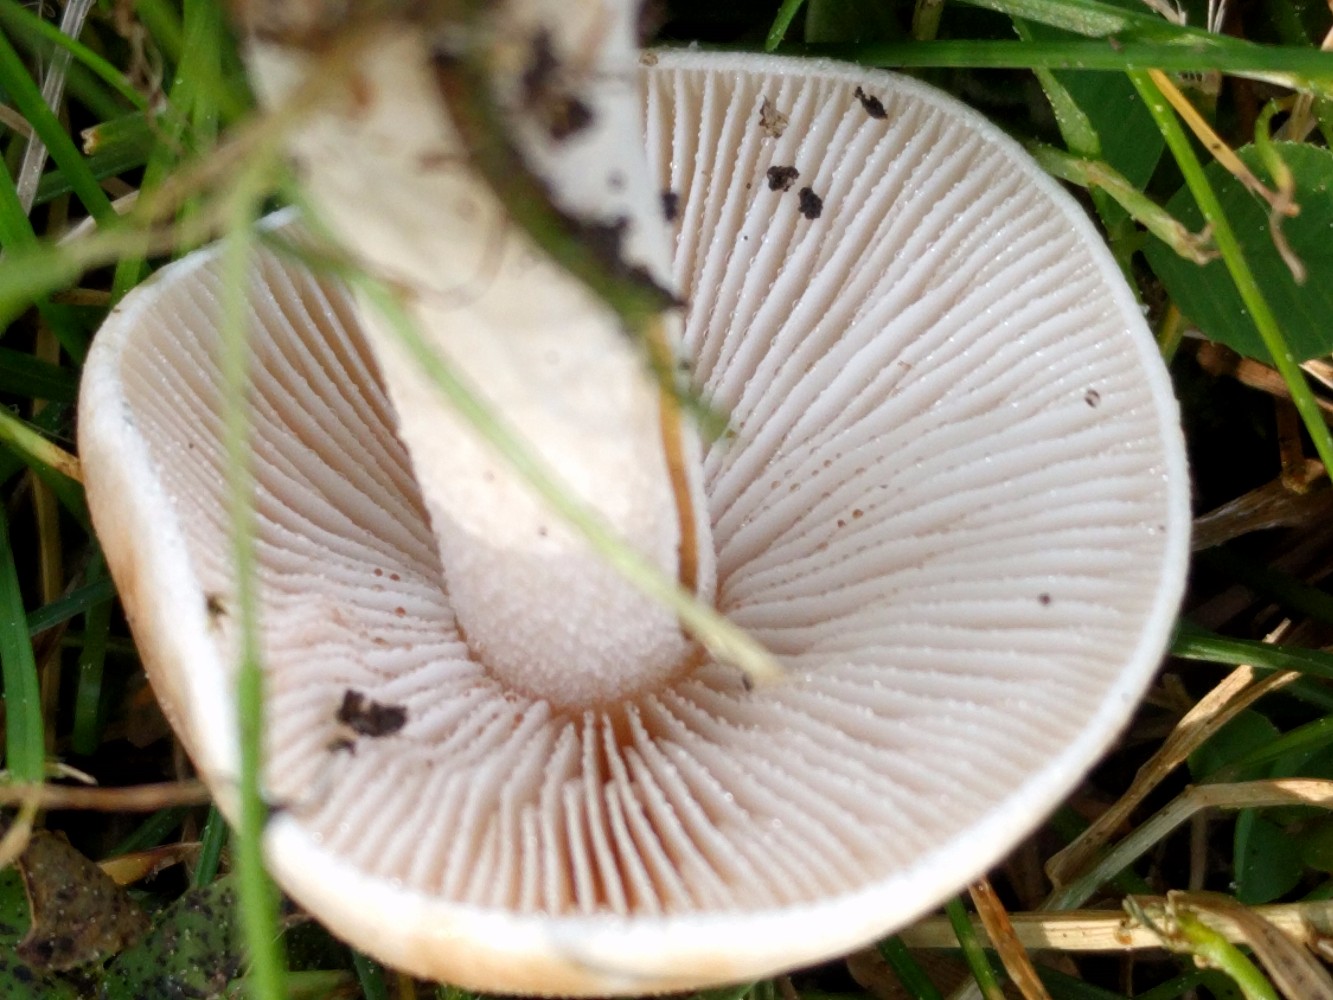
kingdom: Fungi
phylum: Basidiomycota
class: Agaricomycetes
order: Agaricales
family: Hymenogastraceae
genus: Hebeloma
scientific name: Hebeloma
